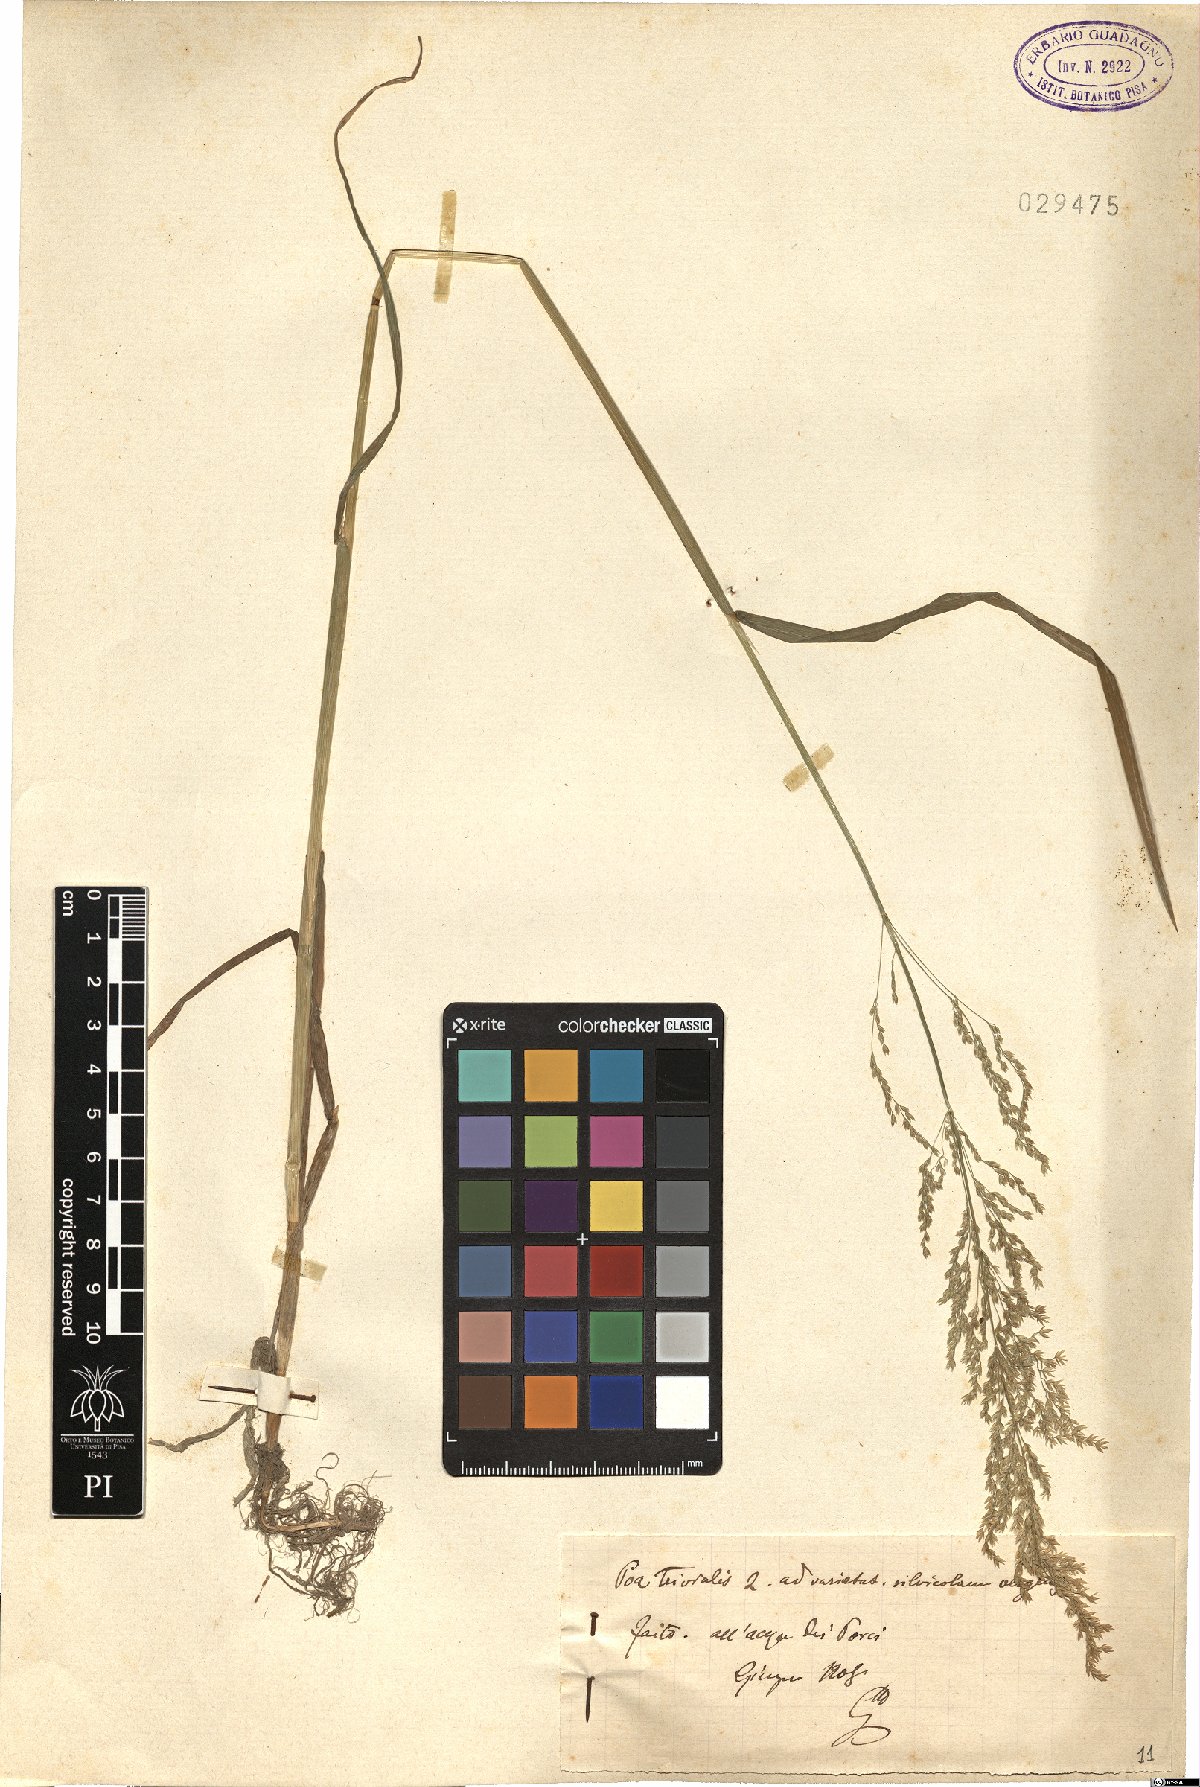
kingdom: Plantae
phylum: Tracheophyta
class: Liliopsida
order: Poales
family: Poaceae
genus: Poa
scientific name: Poa trivialis
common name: Rough bluegrass
